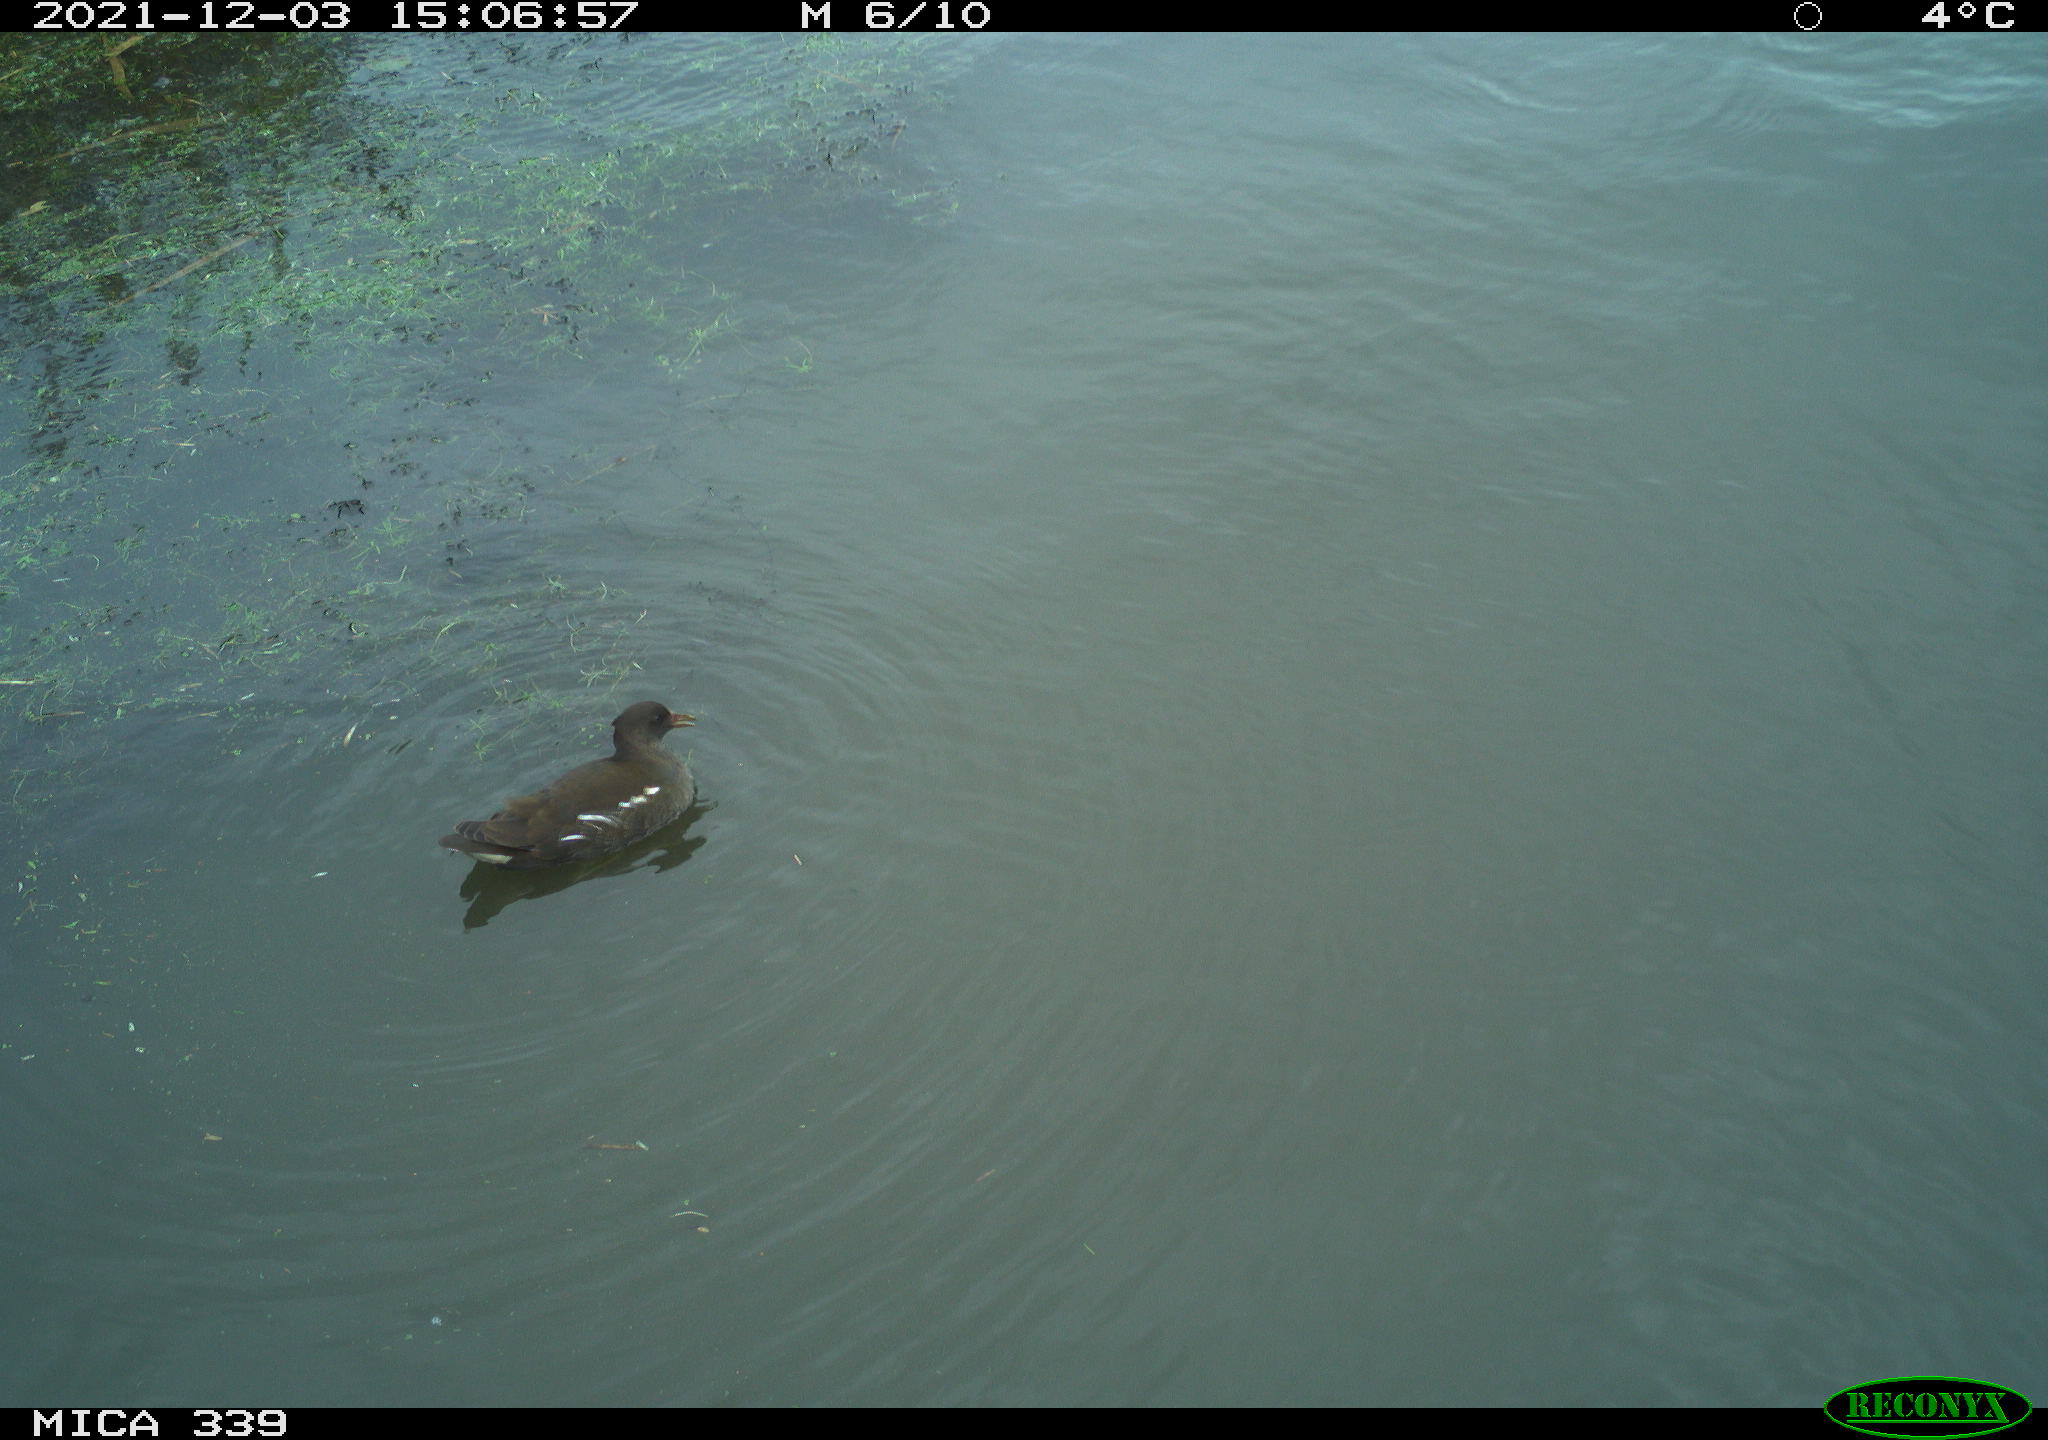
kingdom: Animalia
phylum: Chordata
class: Aves
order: Gruiformes
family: Rallidae
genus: Gallinula
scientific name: Gallinula chloropus
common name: Common moorhen
